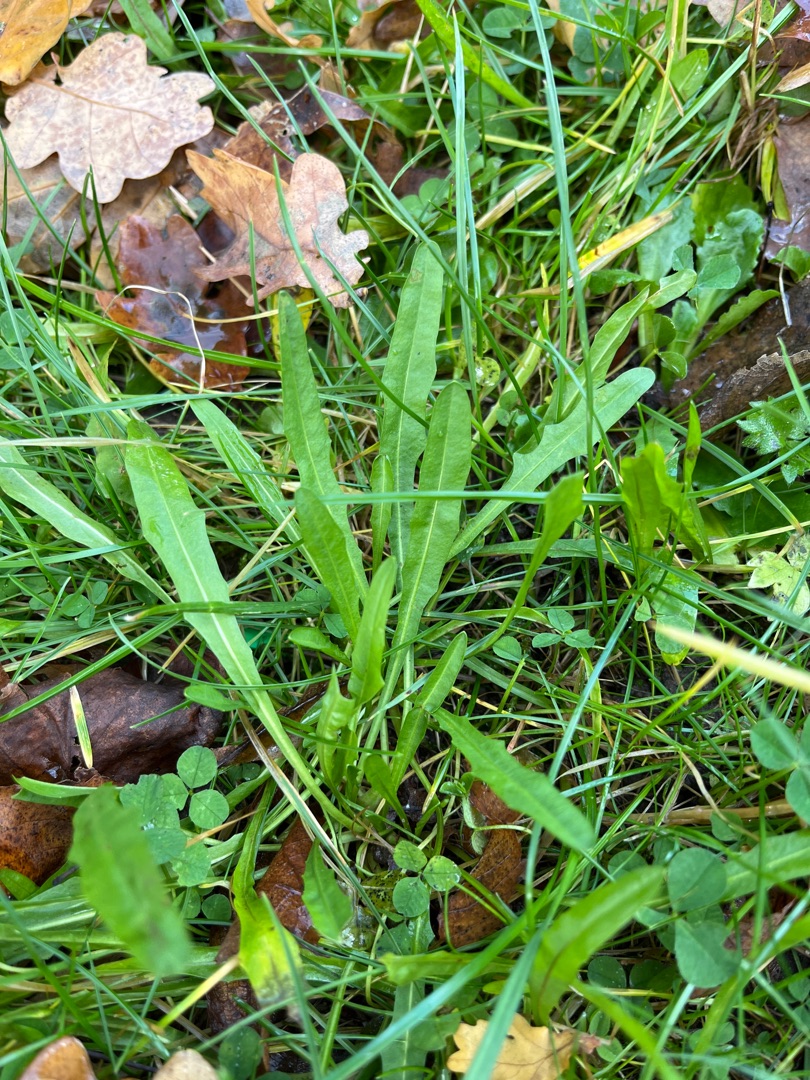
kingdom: Plantae
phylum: Tracheophyta
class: Magnoliopsida
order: Asterales
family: Asteraceae
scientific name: Asteraceae
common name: Kurvblomstfamilien
